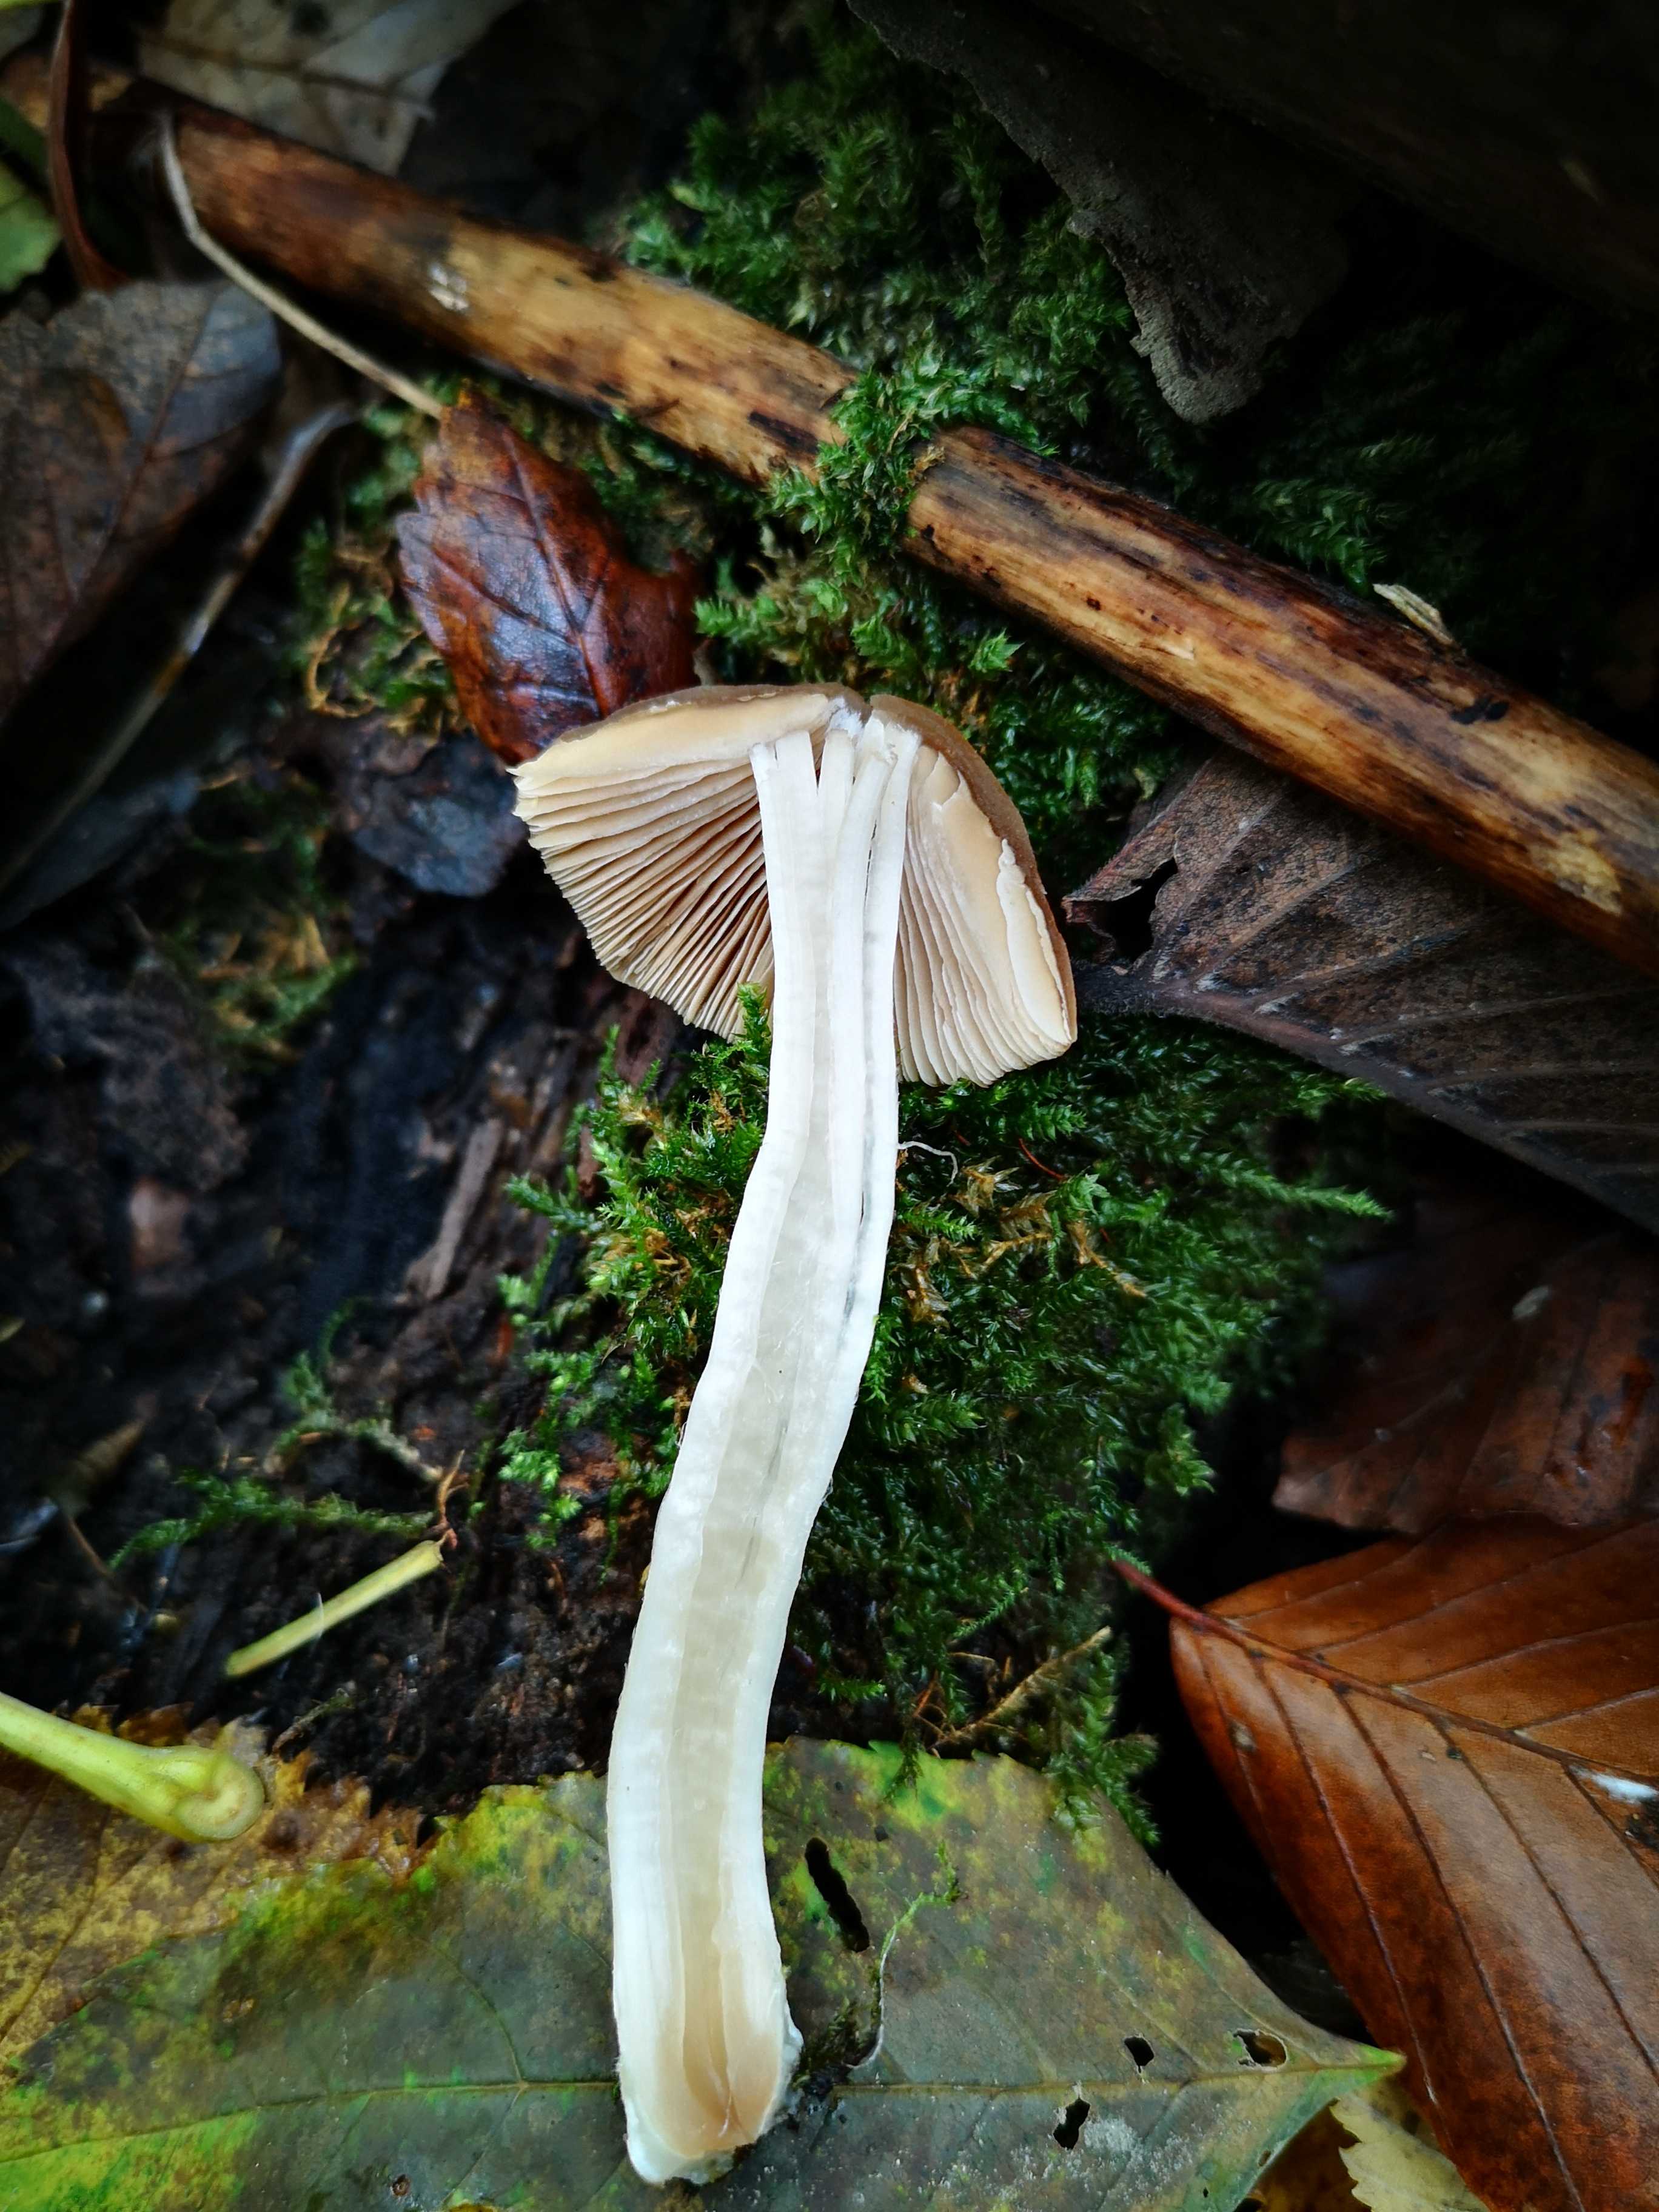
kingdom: Fungi
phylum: Basidiomycota
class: Agaricomycetes
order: Agaricales
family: Psathyrellaceae
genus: Psathyrella
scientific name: Psathyrella
